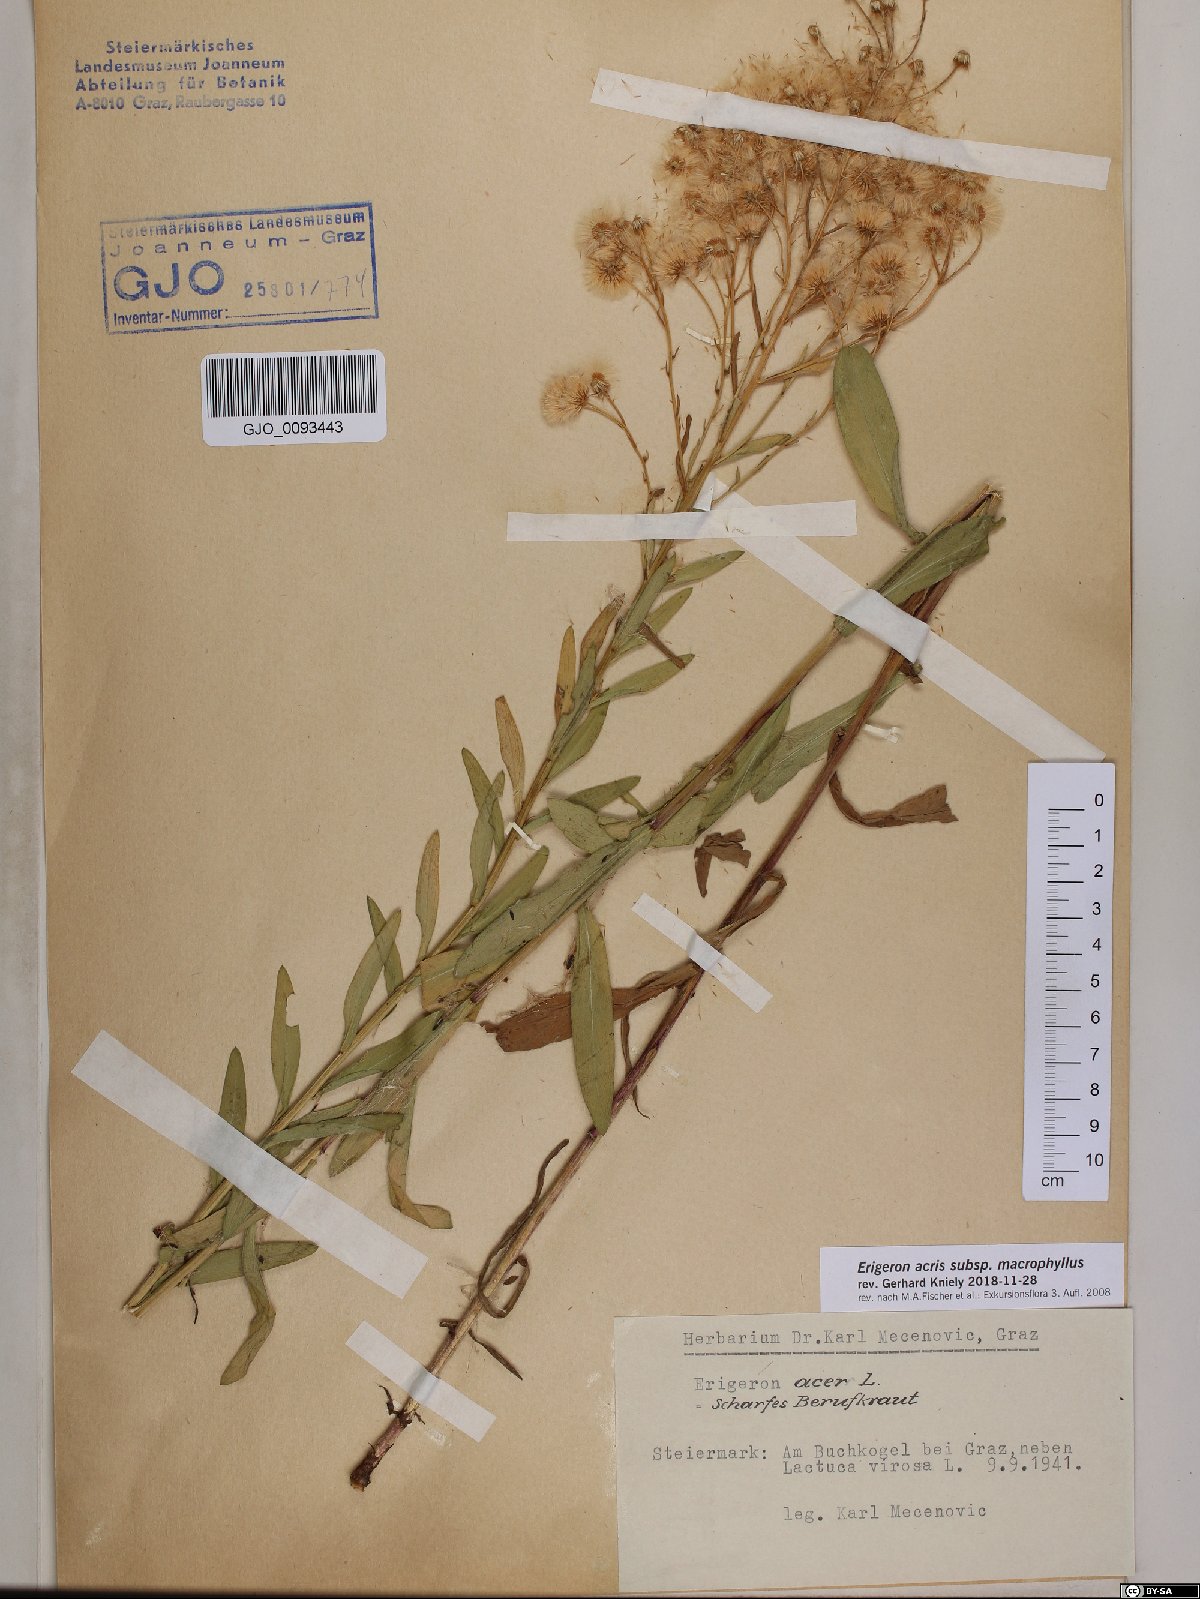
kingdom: Plantae
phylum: Tracheophyta
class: Magnoliopsida
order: Asterales
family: Asteraceae
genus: Erigeron
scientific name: Erigeron macrophyllus
